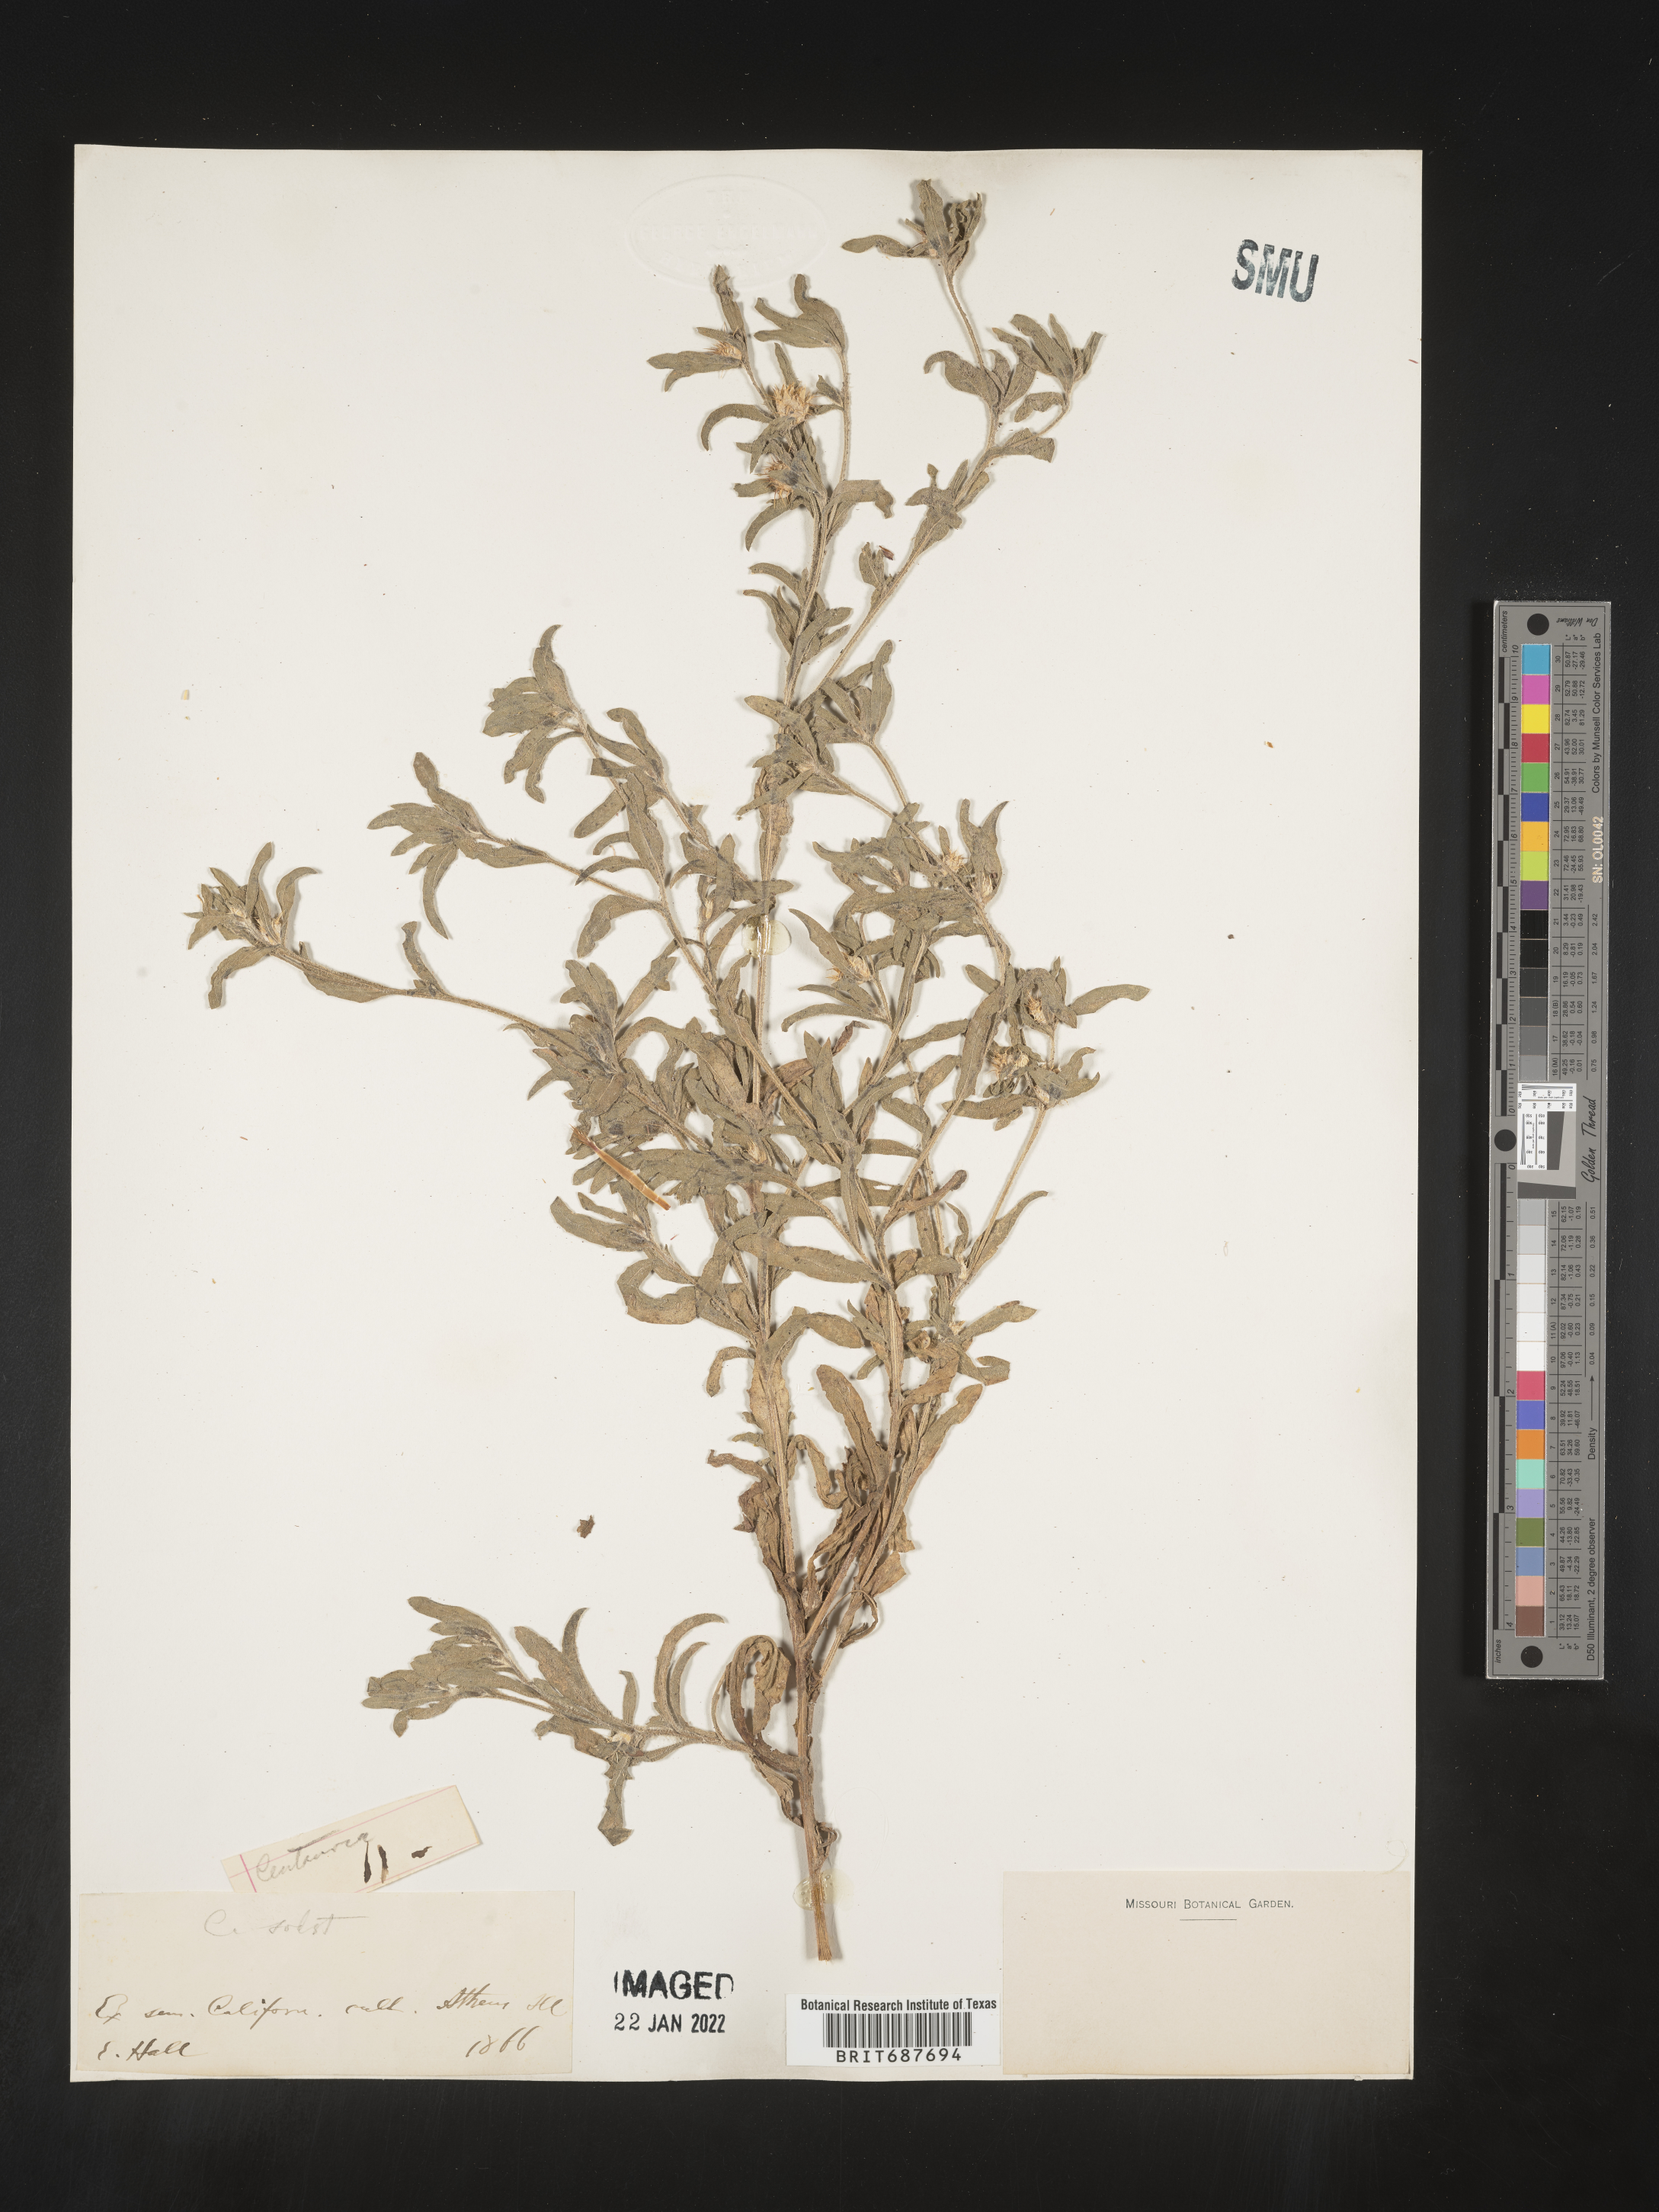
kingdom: Plantae
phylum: Tracheophyta
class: Magnoliopsida
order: Asterales
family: Asteraceae
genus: Centaurea
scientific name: Centaurea
